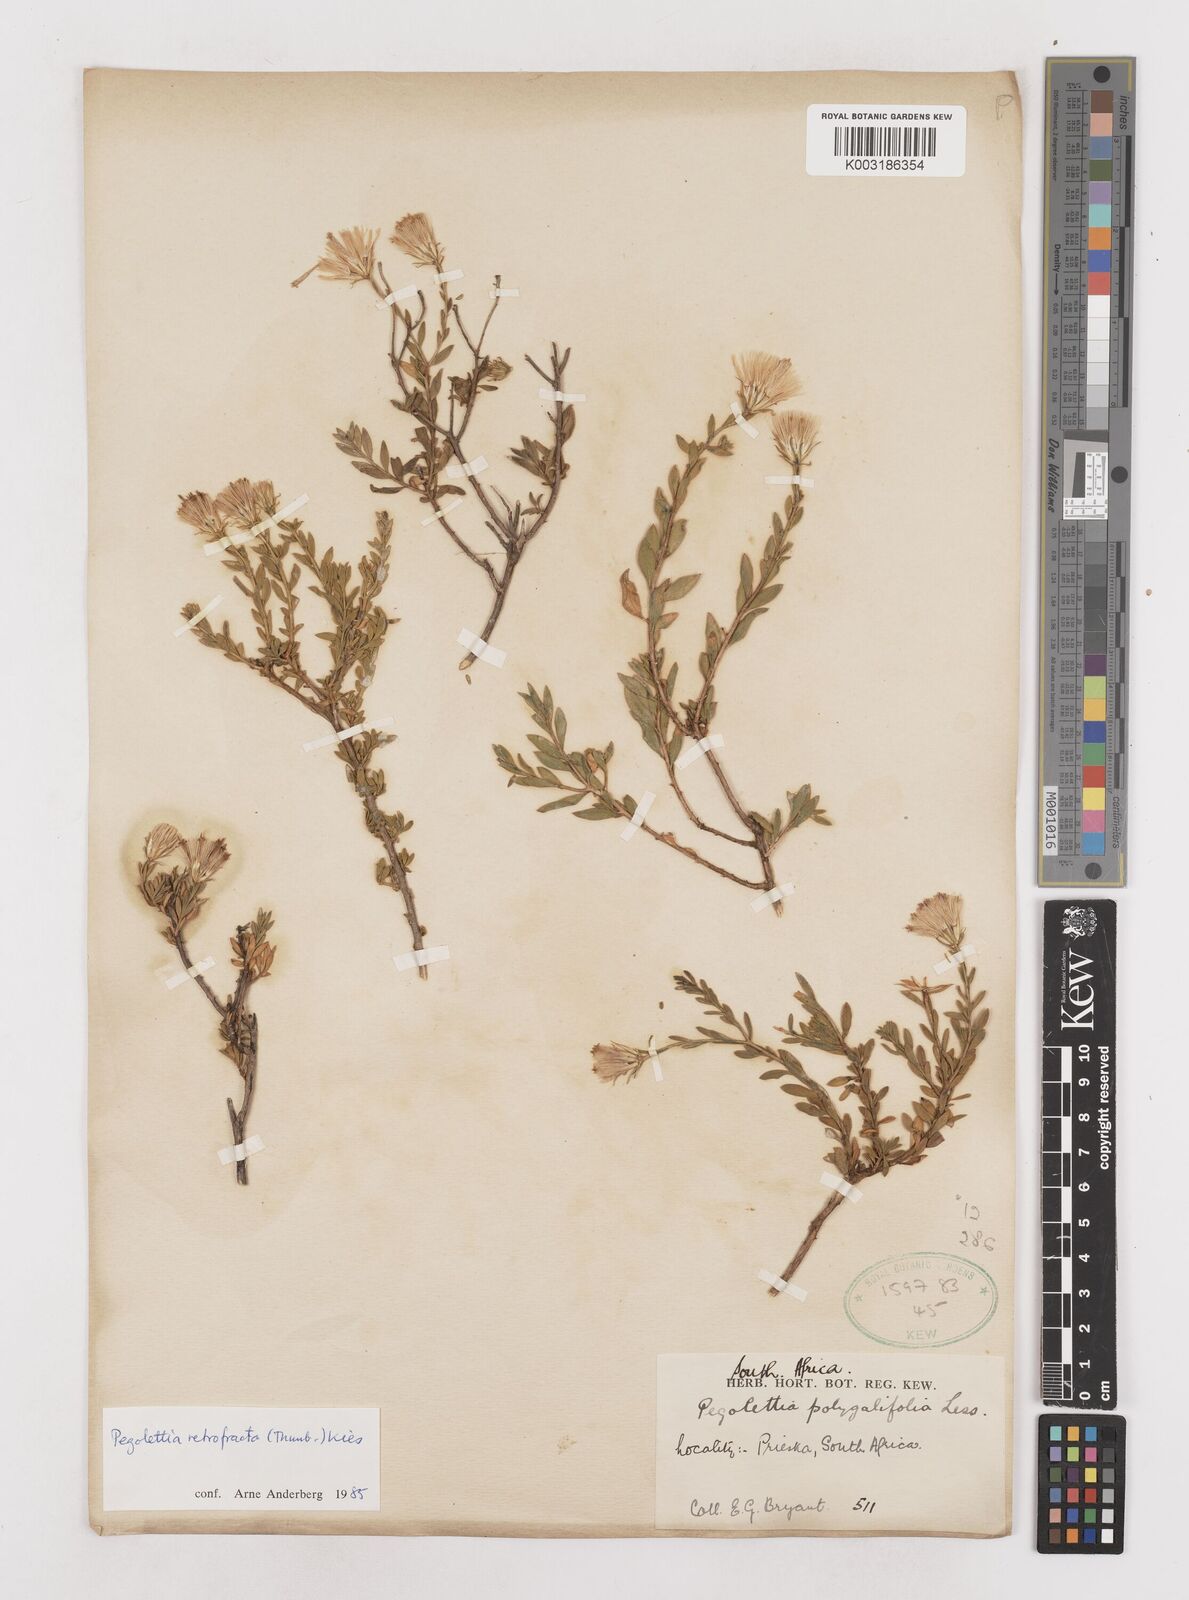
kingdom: Plantae
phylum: Tracheophyta
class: Magnoliopsida
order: Asterales
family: Asteraceae
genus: Pegolettia
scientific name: Pegolettia retrofracta
